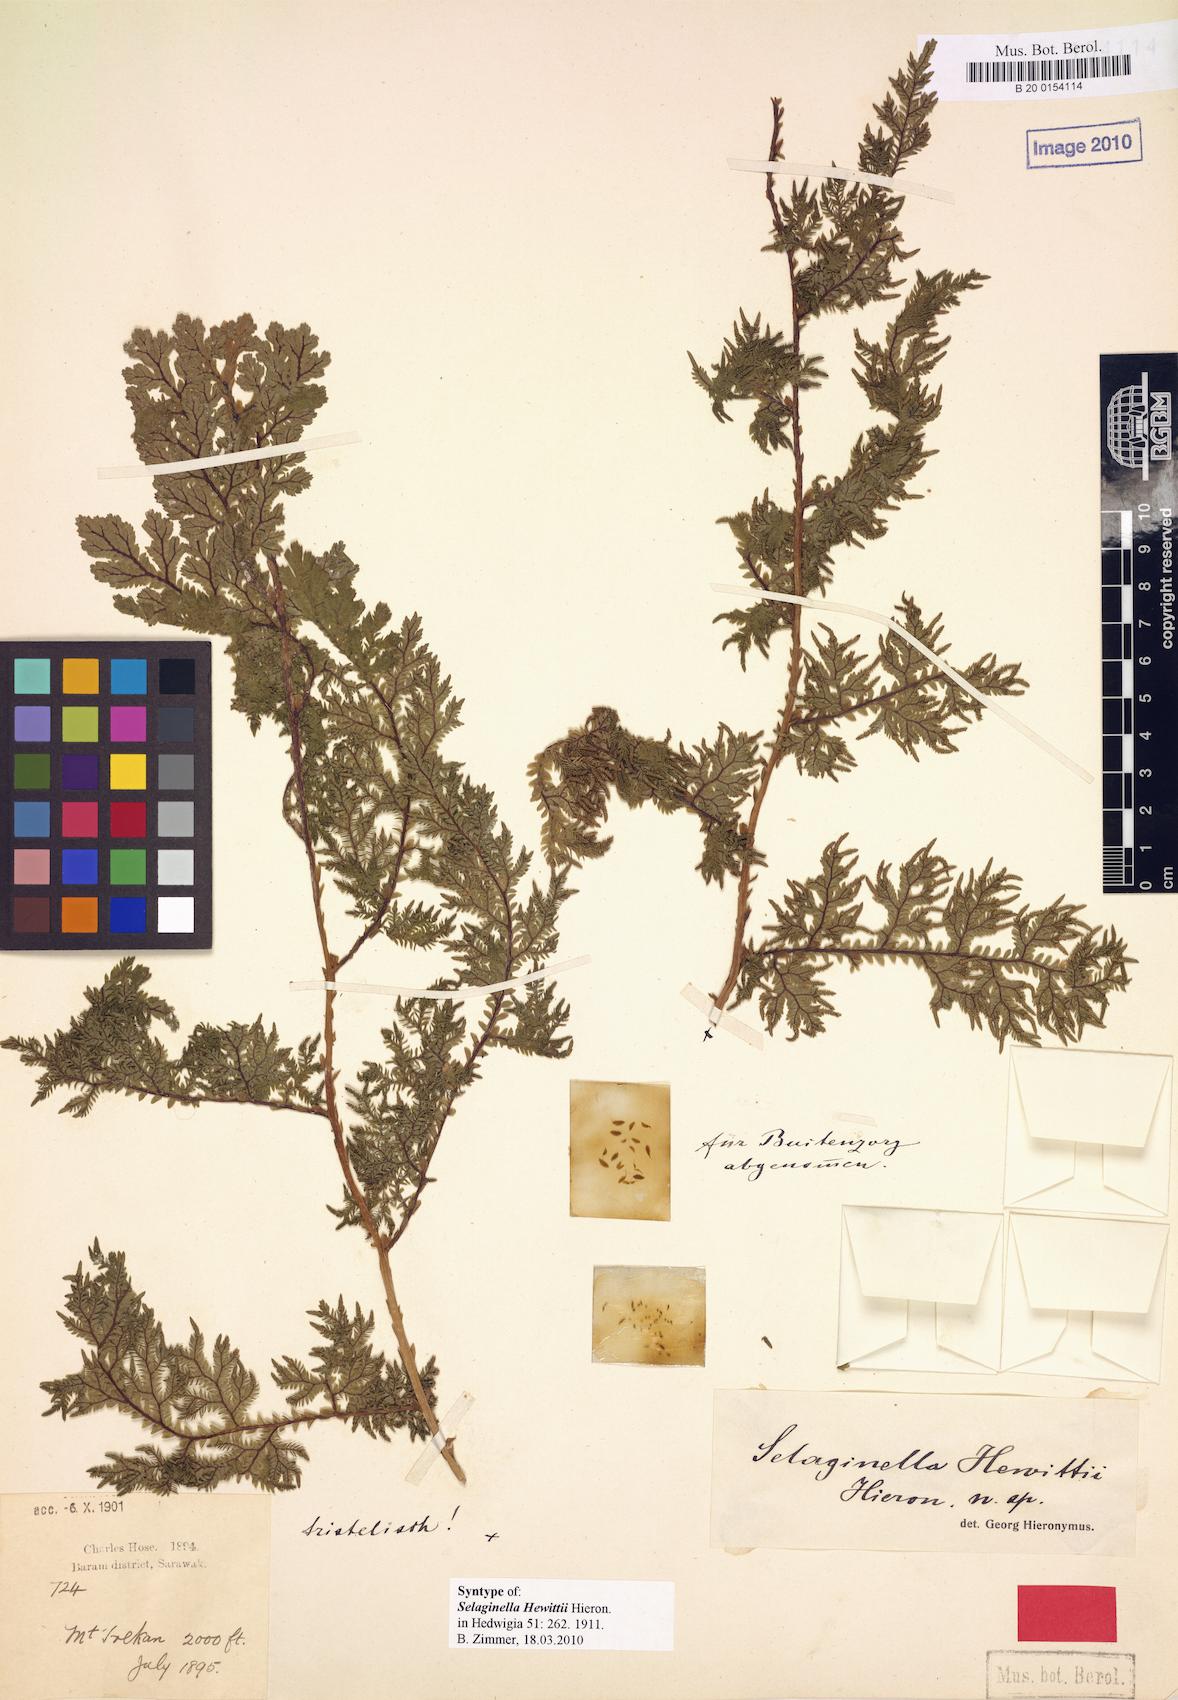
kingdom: Plantae
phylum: Tracheophyta
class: Lycopodiopsida
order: Selaginellales
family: Selaginellaceae
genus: Selaginella
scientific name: Selaginella hewittii
